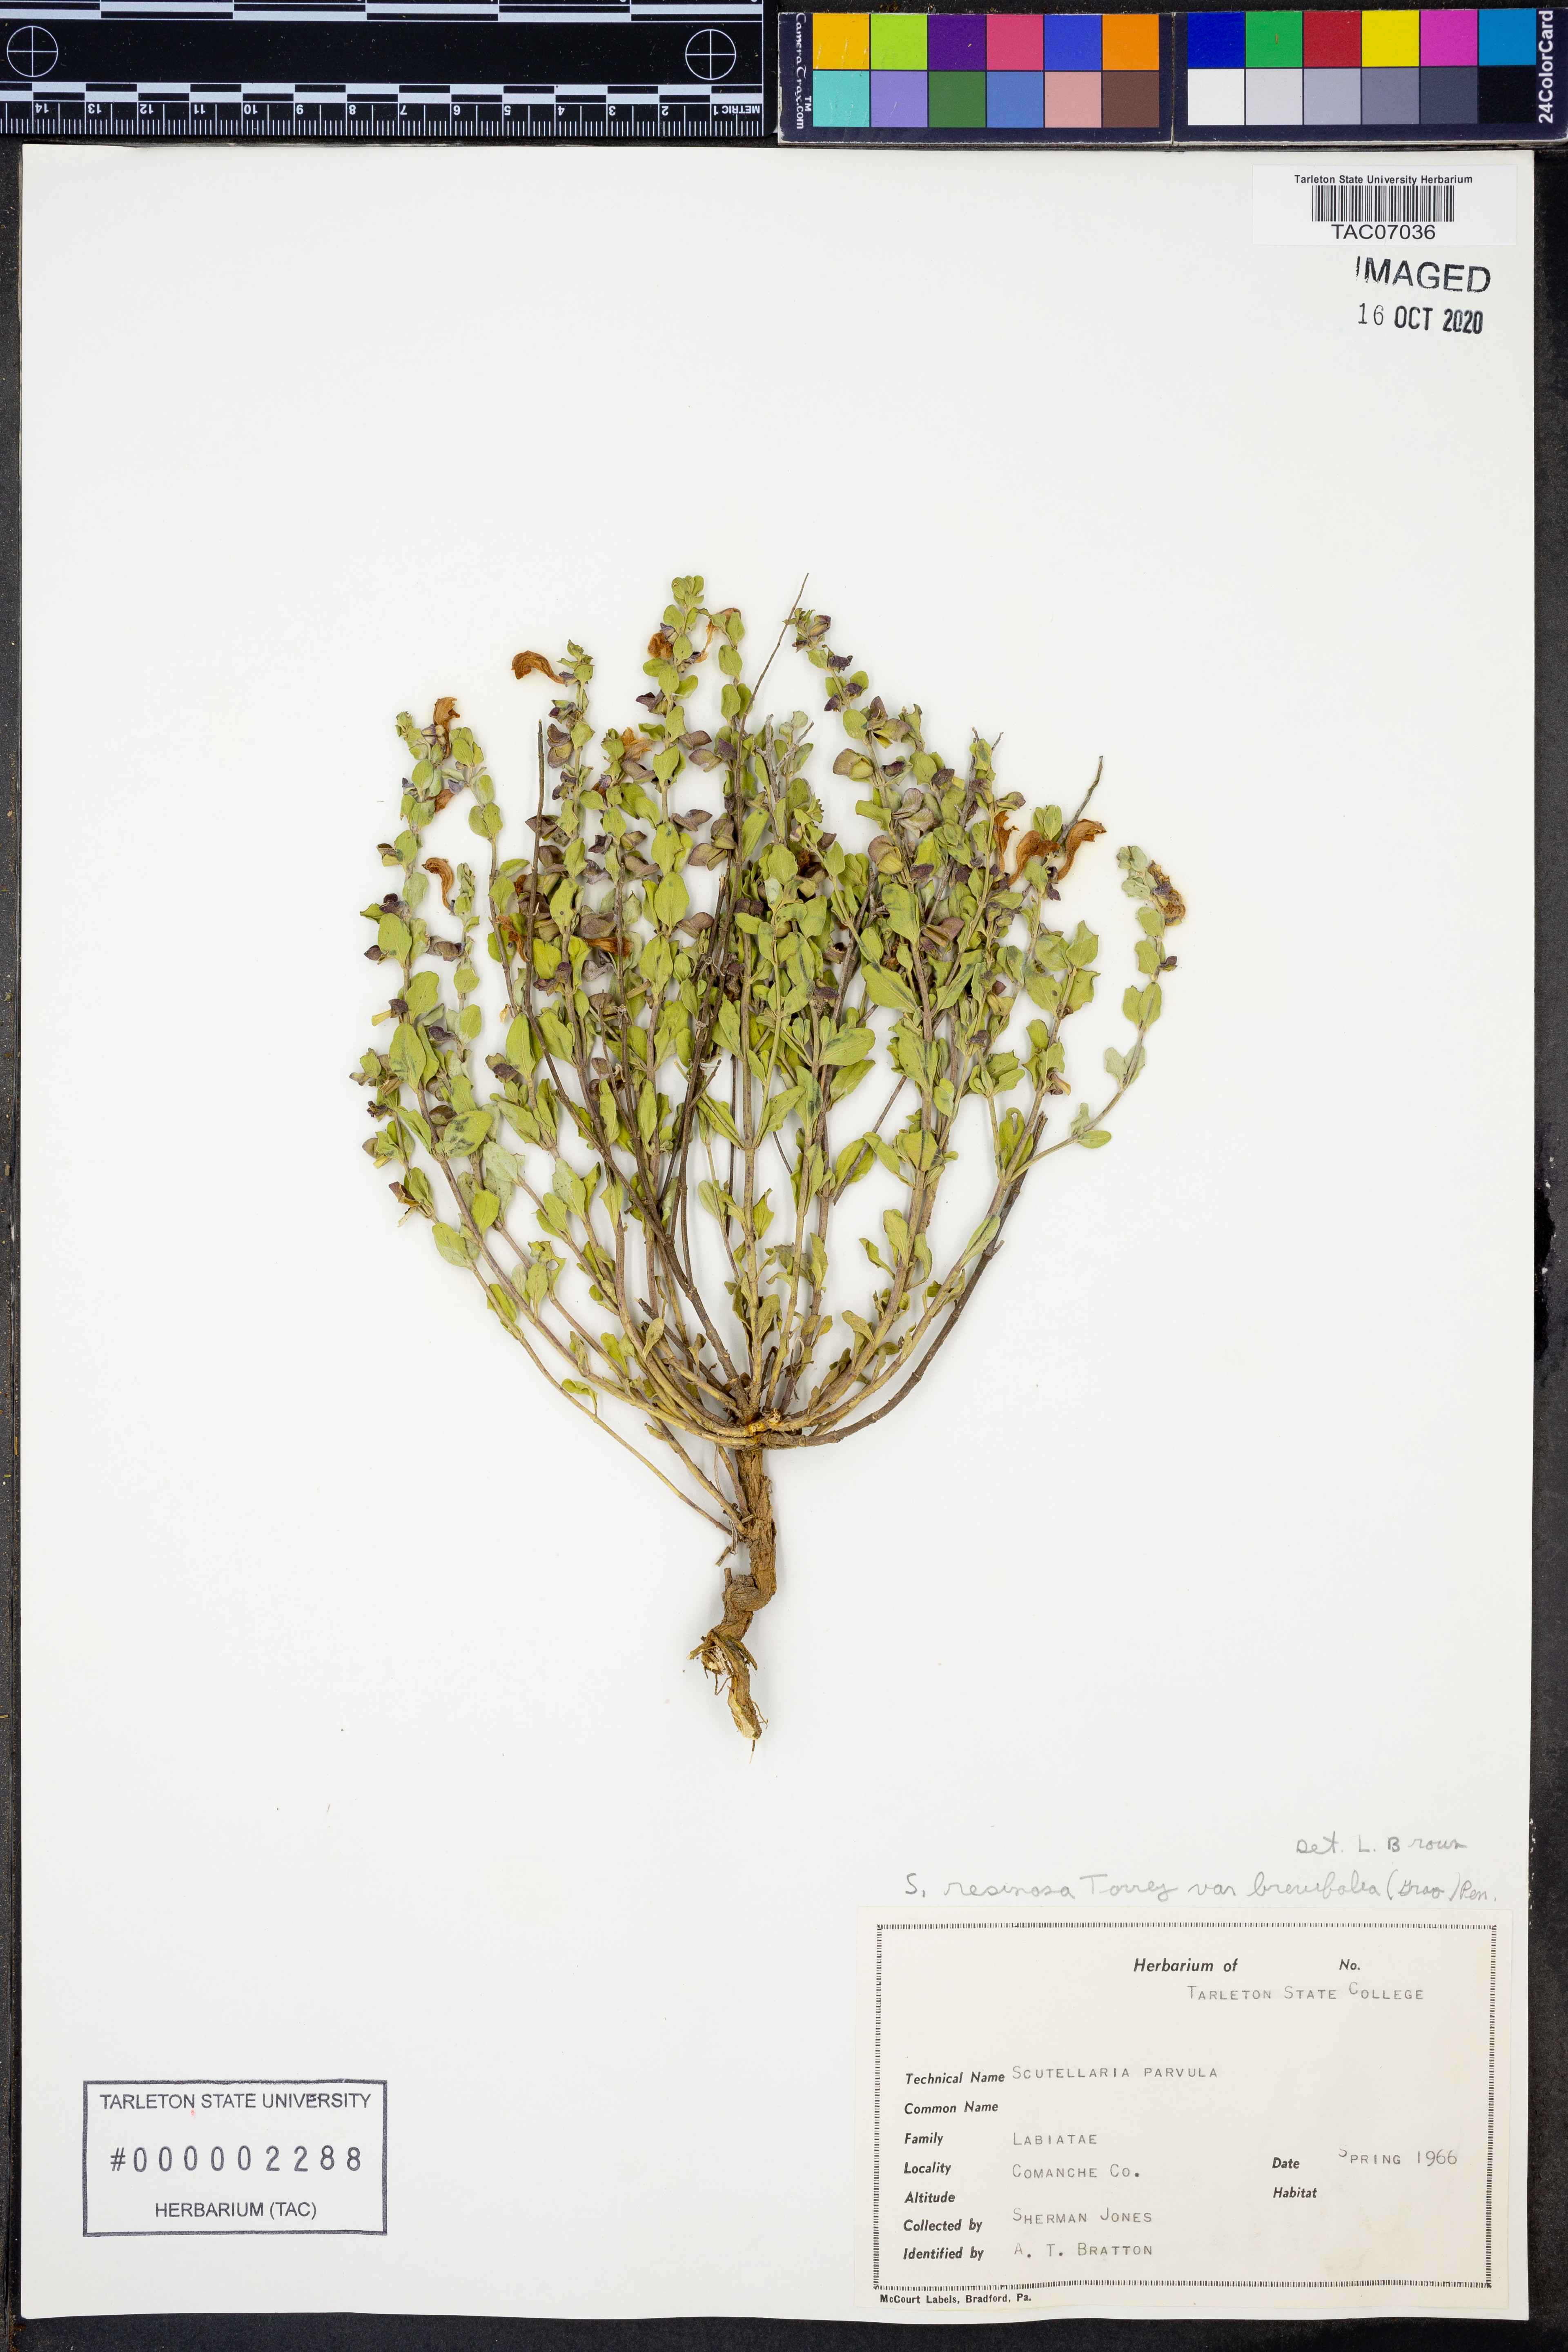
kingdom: Plantae
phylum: Tracheophyta
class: Magnoliopsida
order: Lamiales
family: Lamiaceae
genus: Scutellaria
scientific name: Scutellaria resinosa
